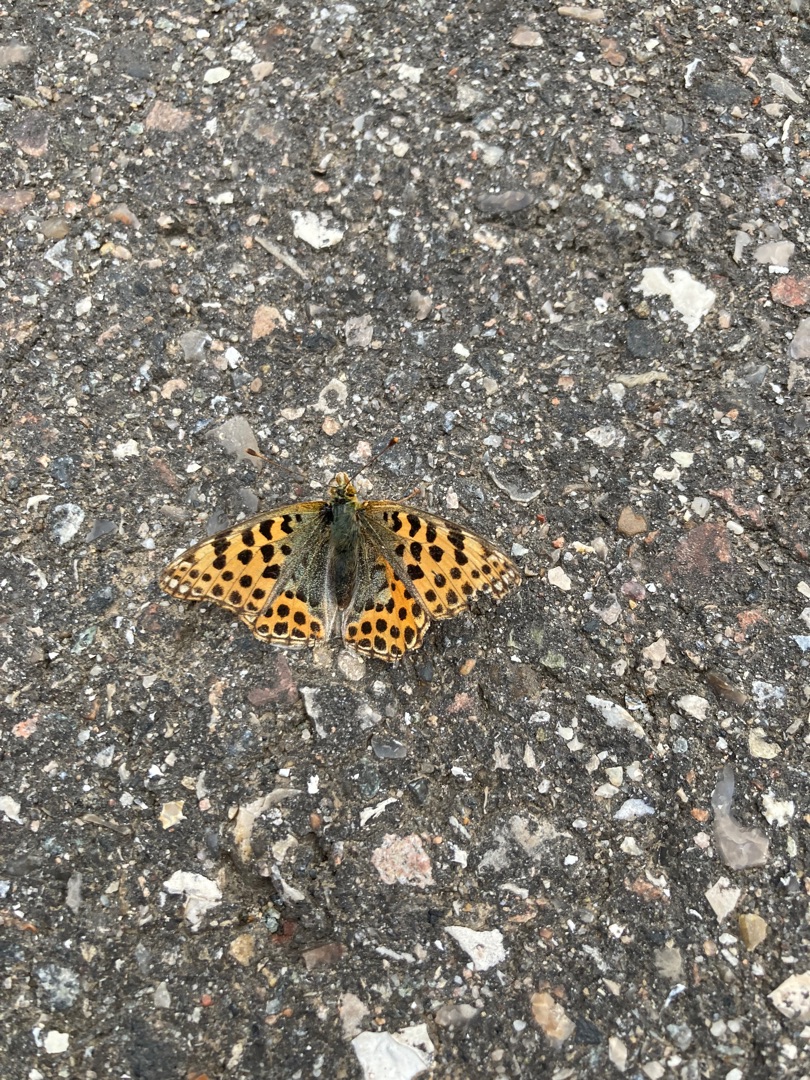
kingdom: Animalia
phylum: Arthropoda
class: Insecta
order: Lepidoptera
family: Nymphalidae
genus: Issoria
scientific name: Issoria lathonia
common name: Storplettet perlemorsommerfugl
